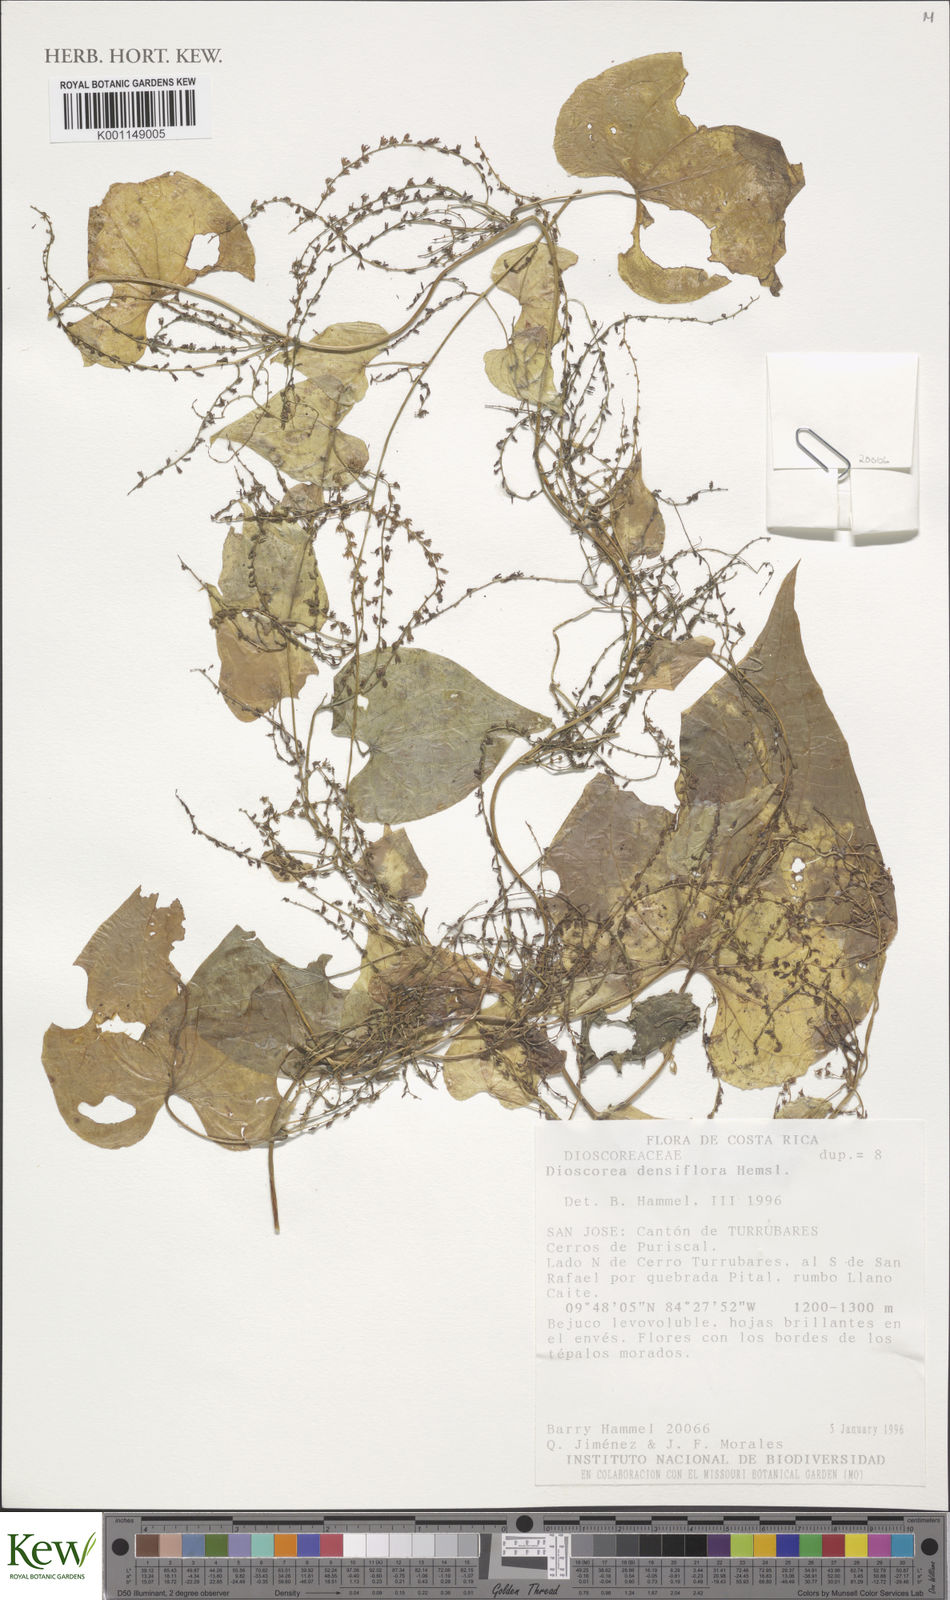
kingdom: Plantae
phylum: Tracheophyta
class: Liliopsida
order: Dioscoreales
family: Dioscoreaceae
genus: Dioscorea
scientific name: Dioscorea densiflora
